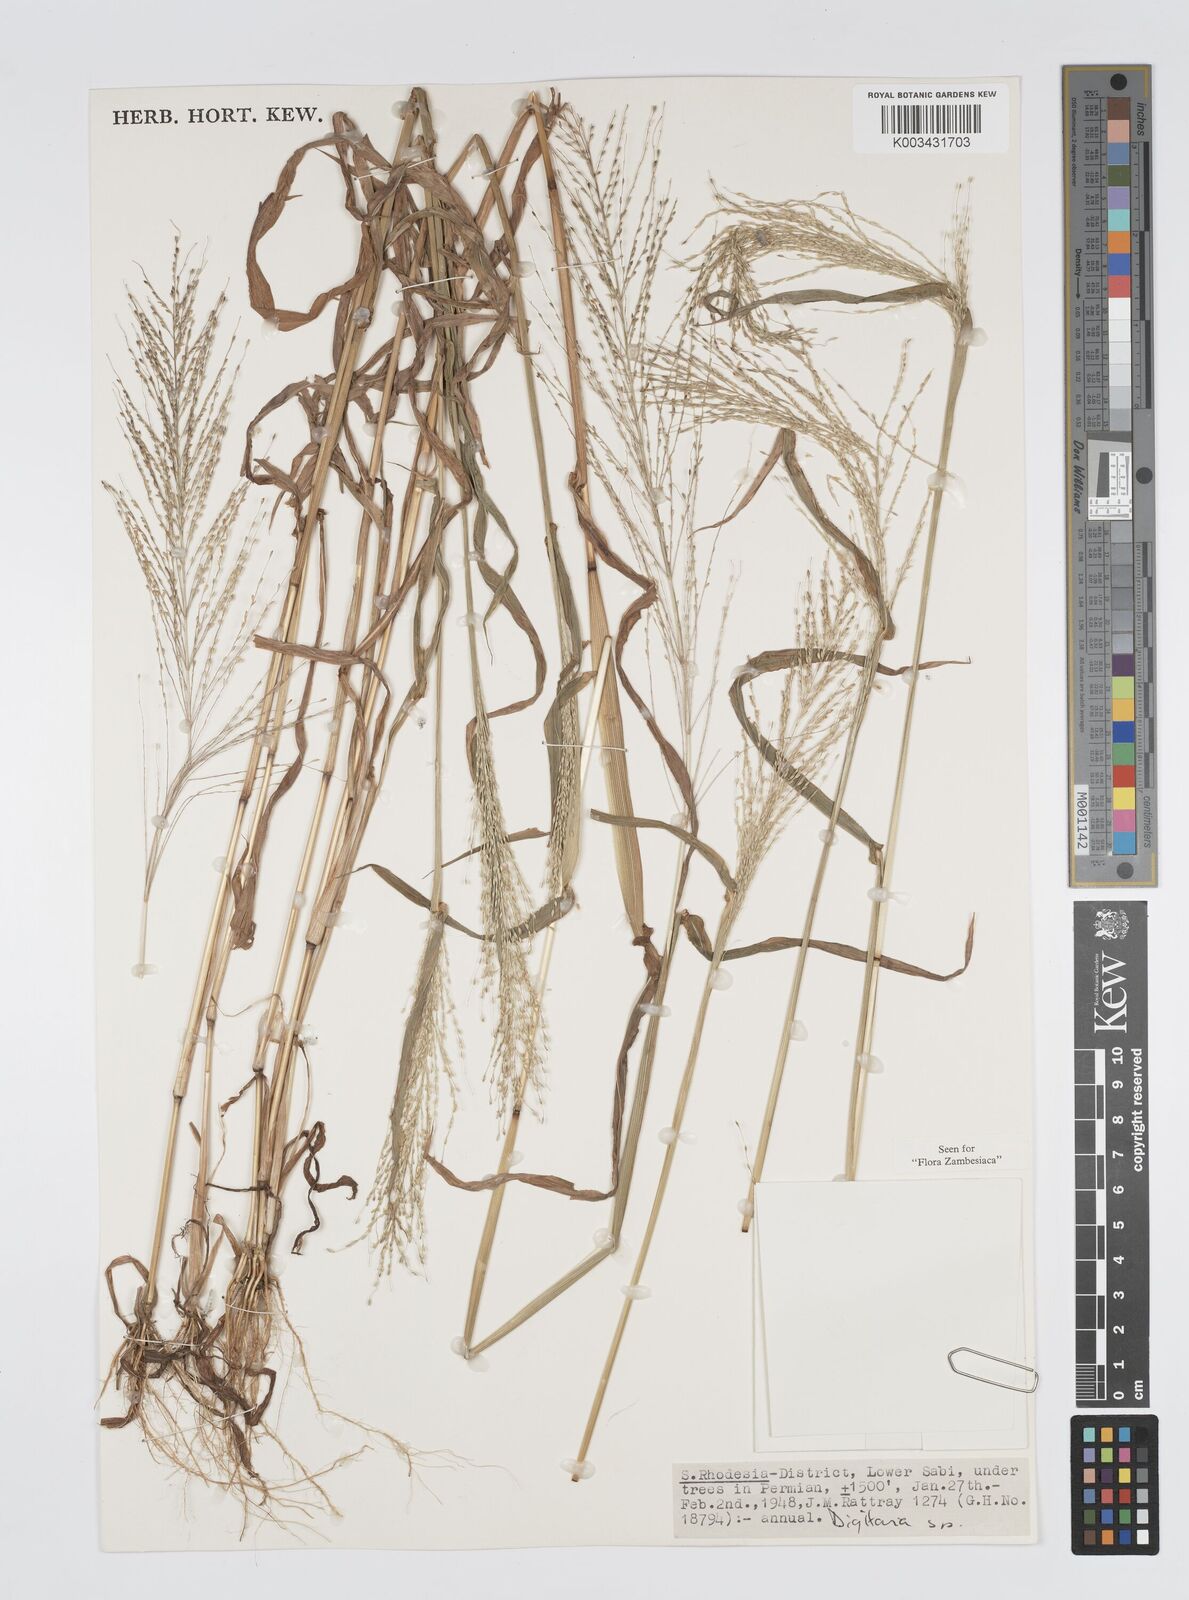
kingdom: Plantae
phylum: Tracheophyta
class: Liliopsida
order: Poales
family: Poaceae
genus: Digitaria
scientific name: Digitaria perrottetii
